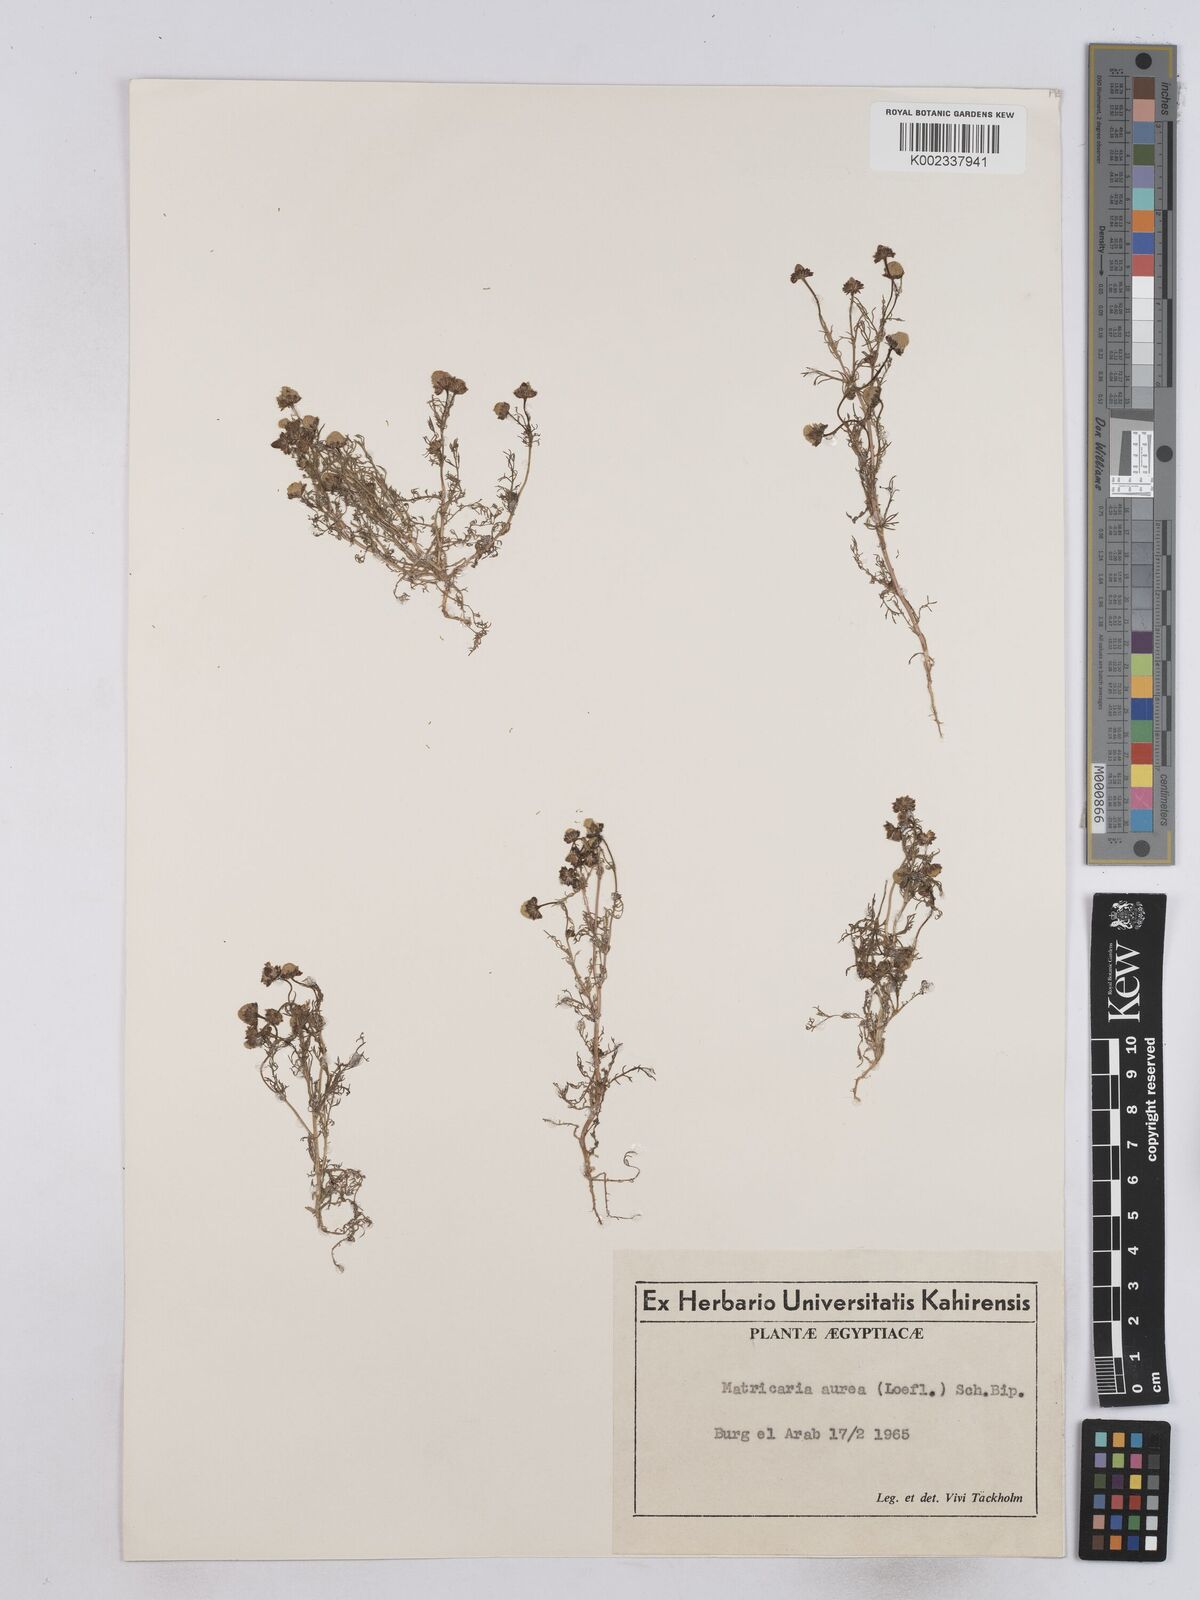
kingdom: Plantae
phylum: Tracheophyta
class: Magnoliopsida
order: Asterales
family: Asteraceae
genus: Matricaria
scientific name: Matricaria aurea
